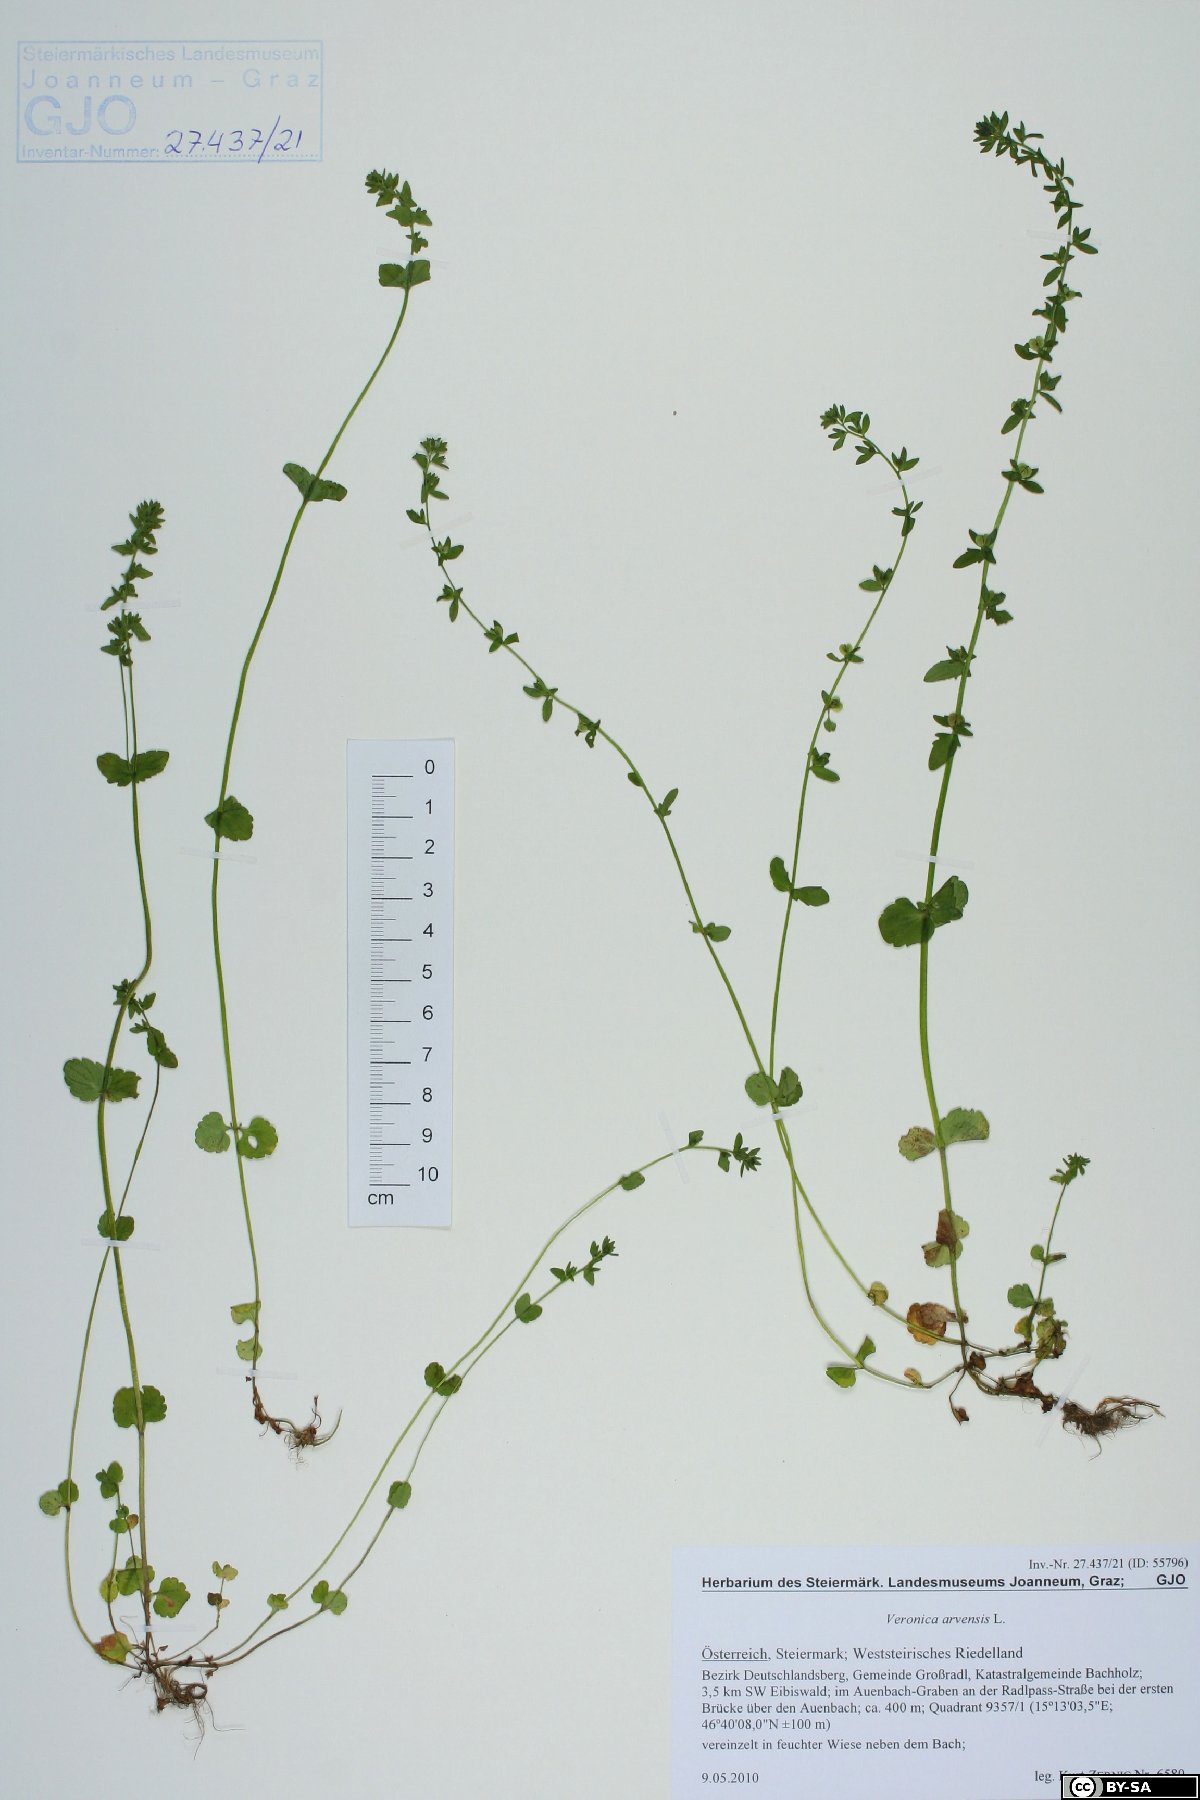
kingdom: Plantae
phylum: Tracheophyta
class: Magnoliopsida
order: Lamiales
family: Plantaginaceae
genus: Veronica
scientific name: Veronica arvensis
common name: Corn speedwell
